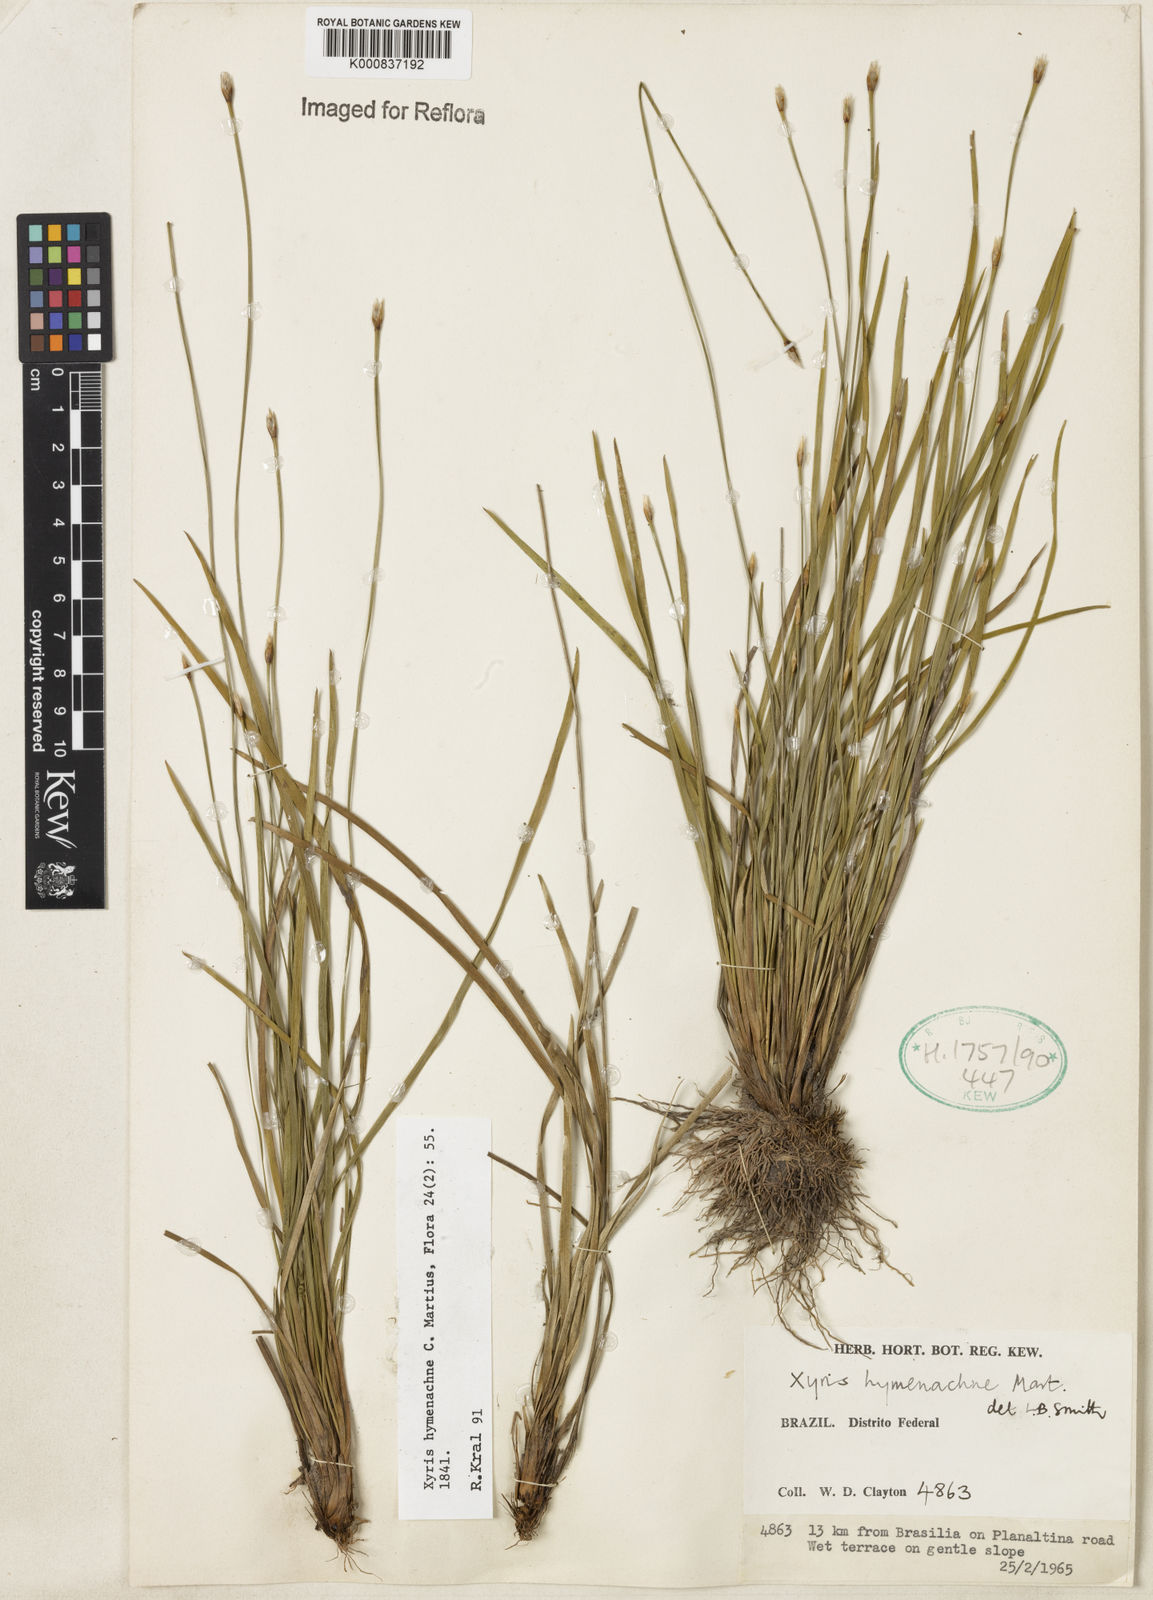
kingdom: Plantae
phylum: Tracheophyta
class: Liliopsida
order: Poales
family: Xyridaceae
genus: Xyris
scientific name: Xyris hymenachne
